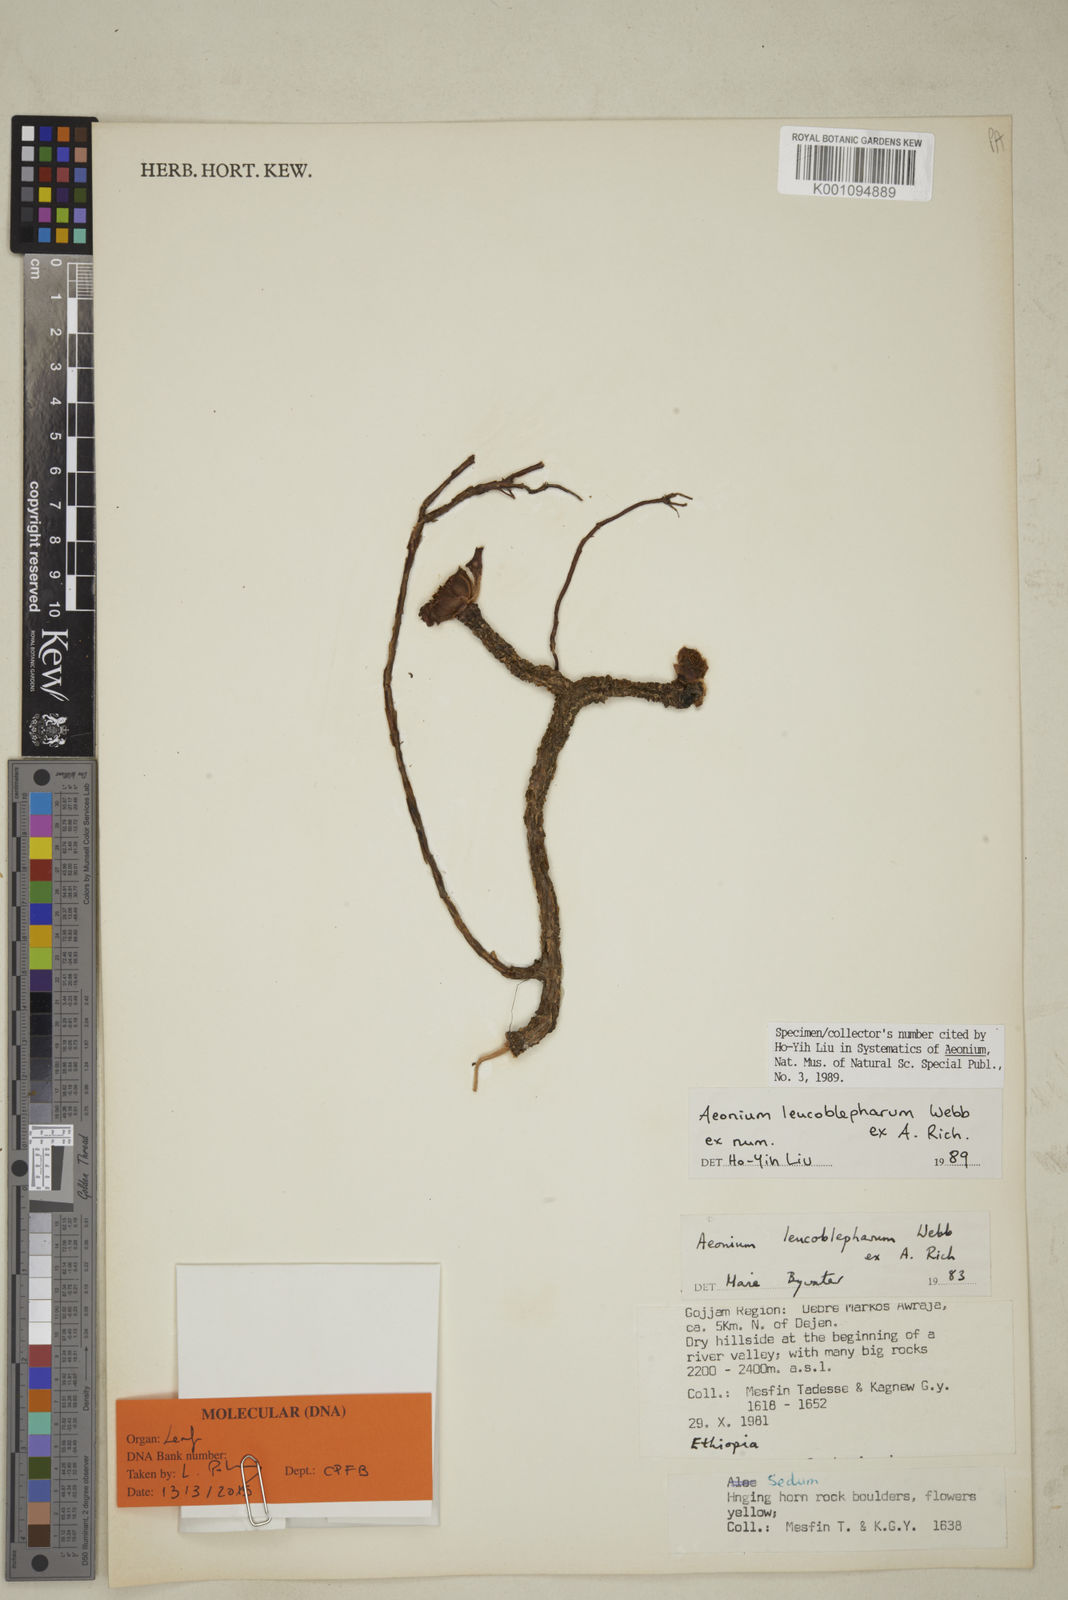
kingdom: Plantae
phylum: Tracheophyta
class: Magnoliopsida
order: Saxifragales
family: Crassulaceae
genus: Aeonium
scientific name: Aeonium leucoblepharum
